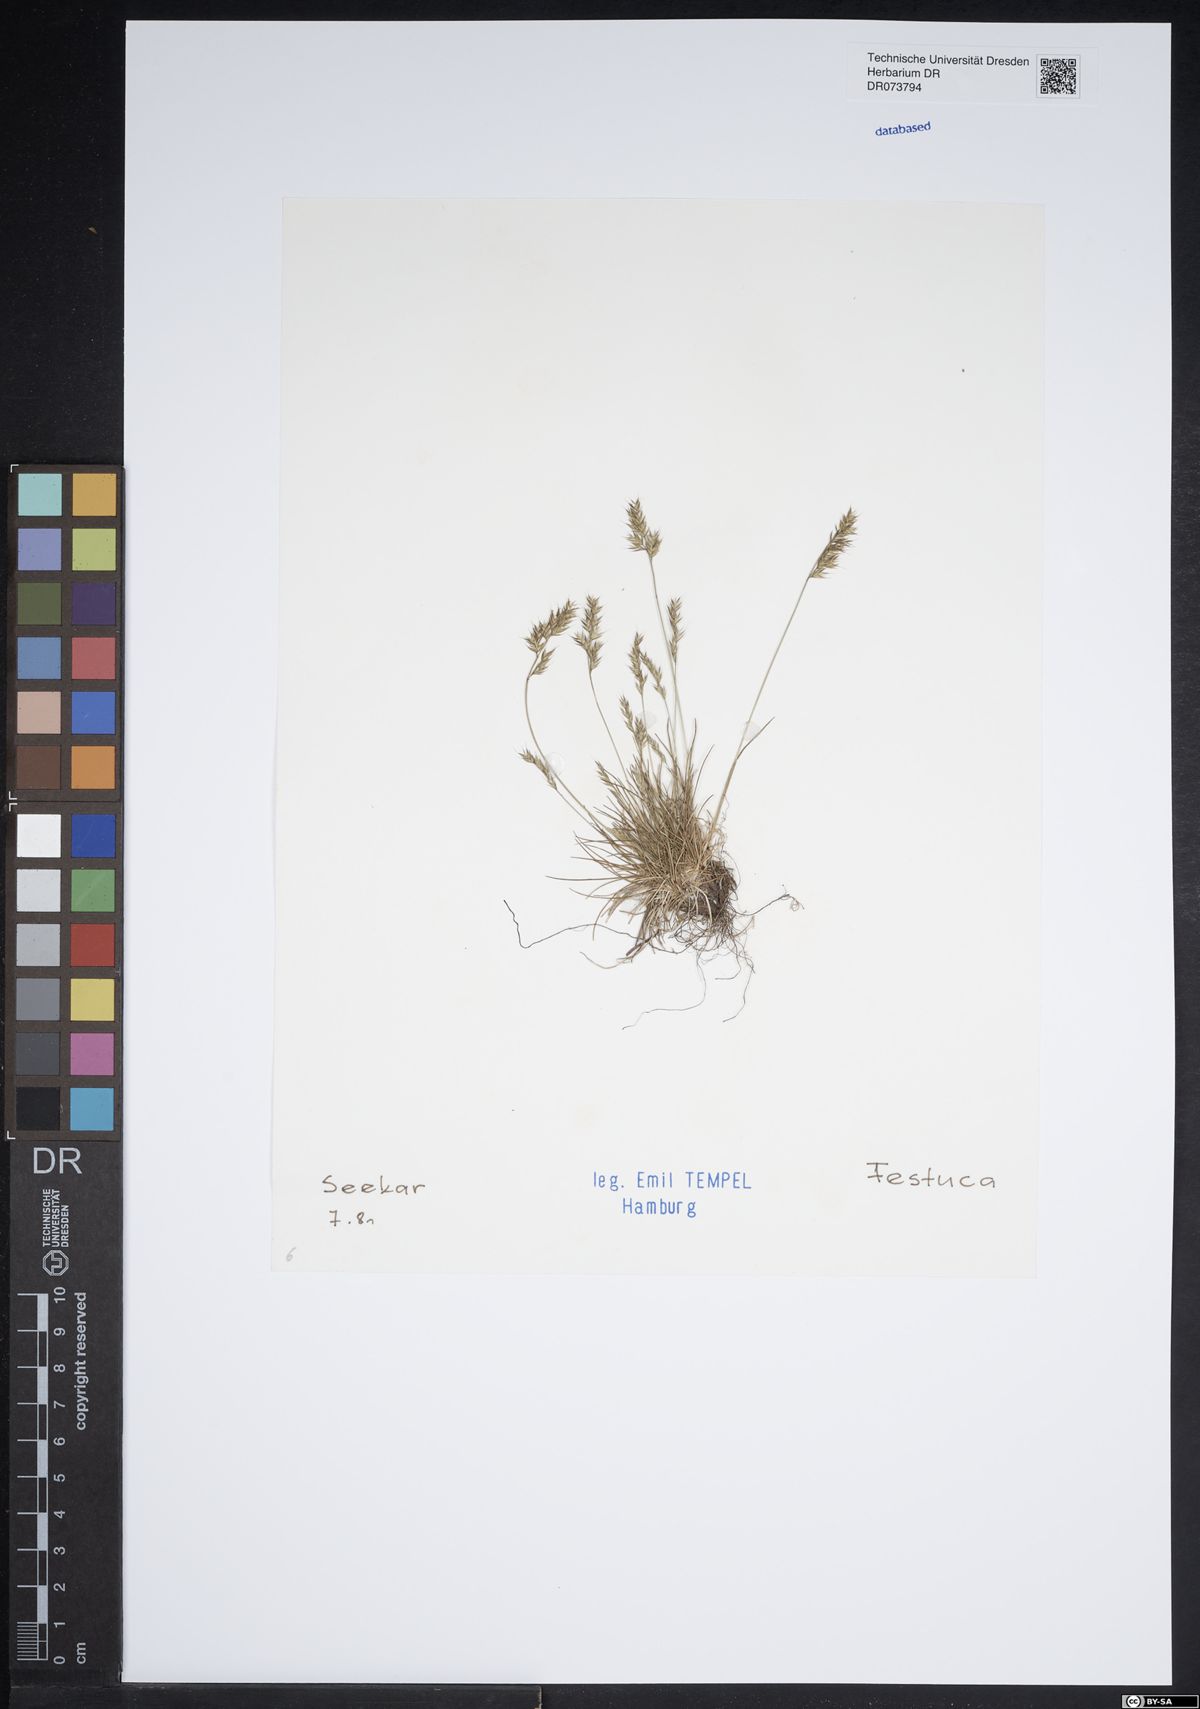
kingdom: Plantae
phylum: Tracheophyta
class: Liliopsida
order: Poales
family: Poaceae
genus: Festuca
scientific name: Festuca
